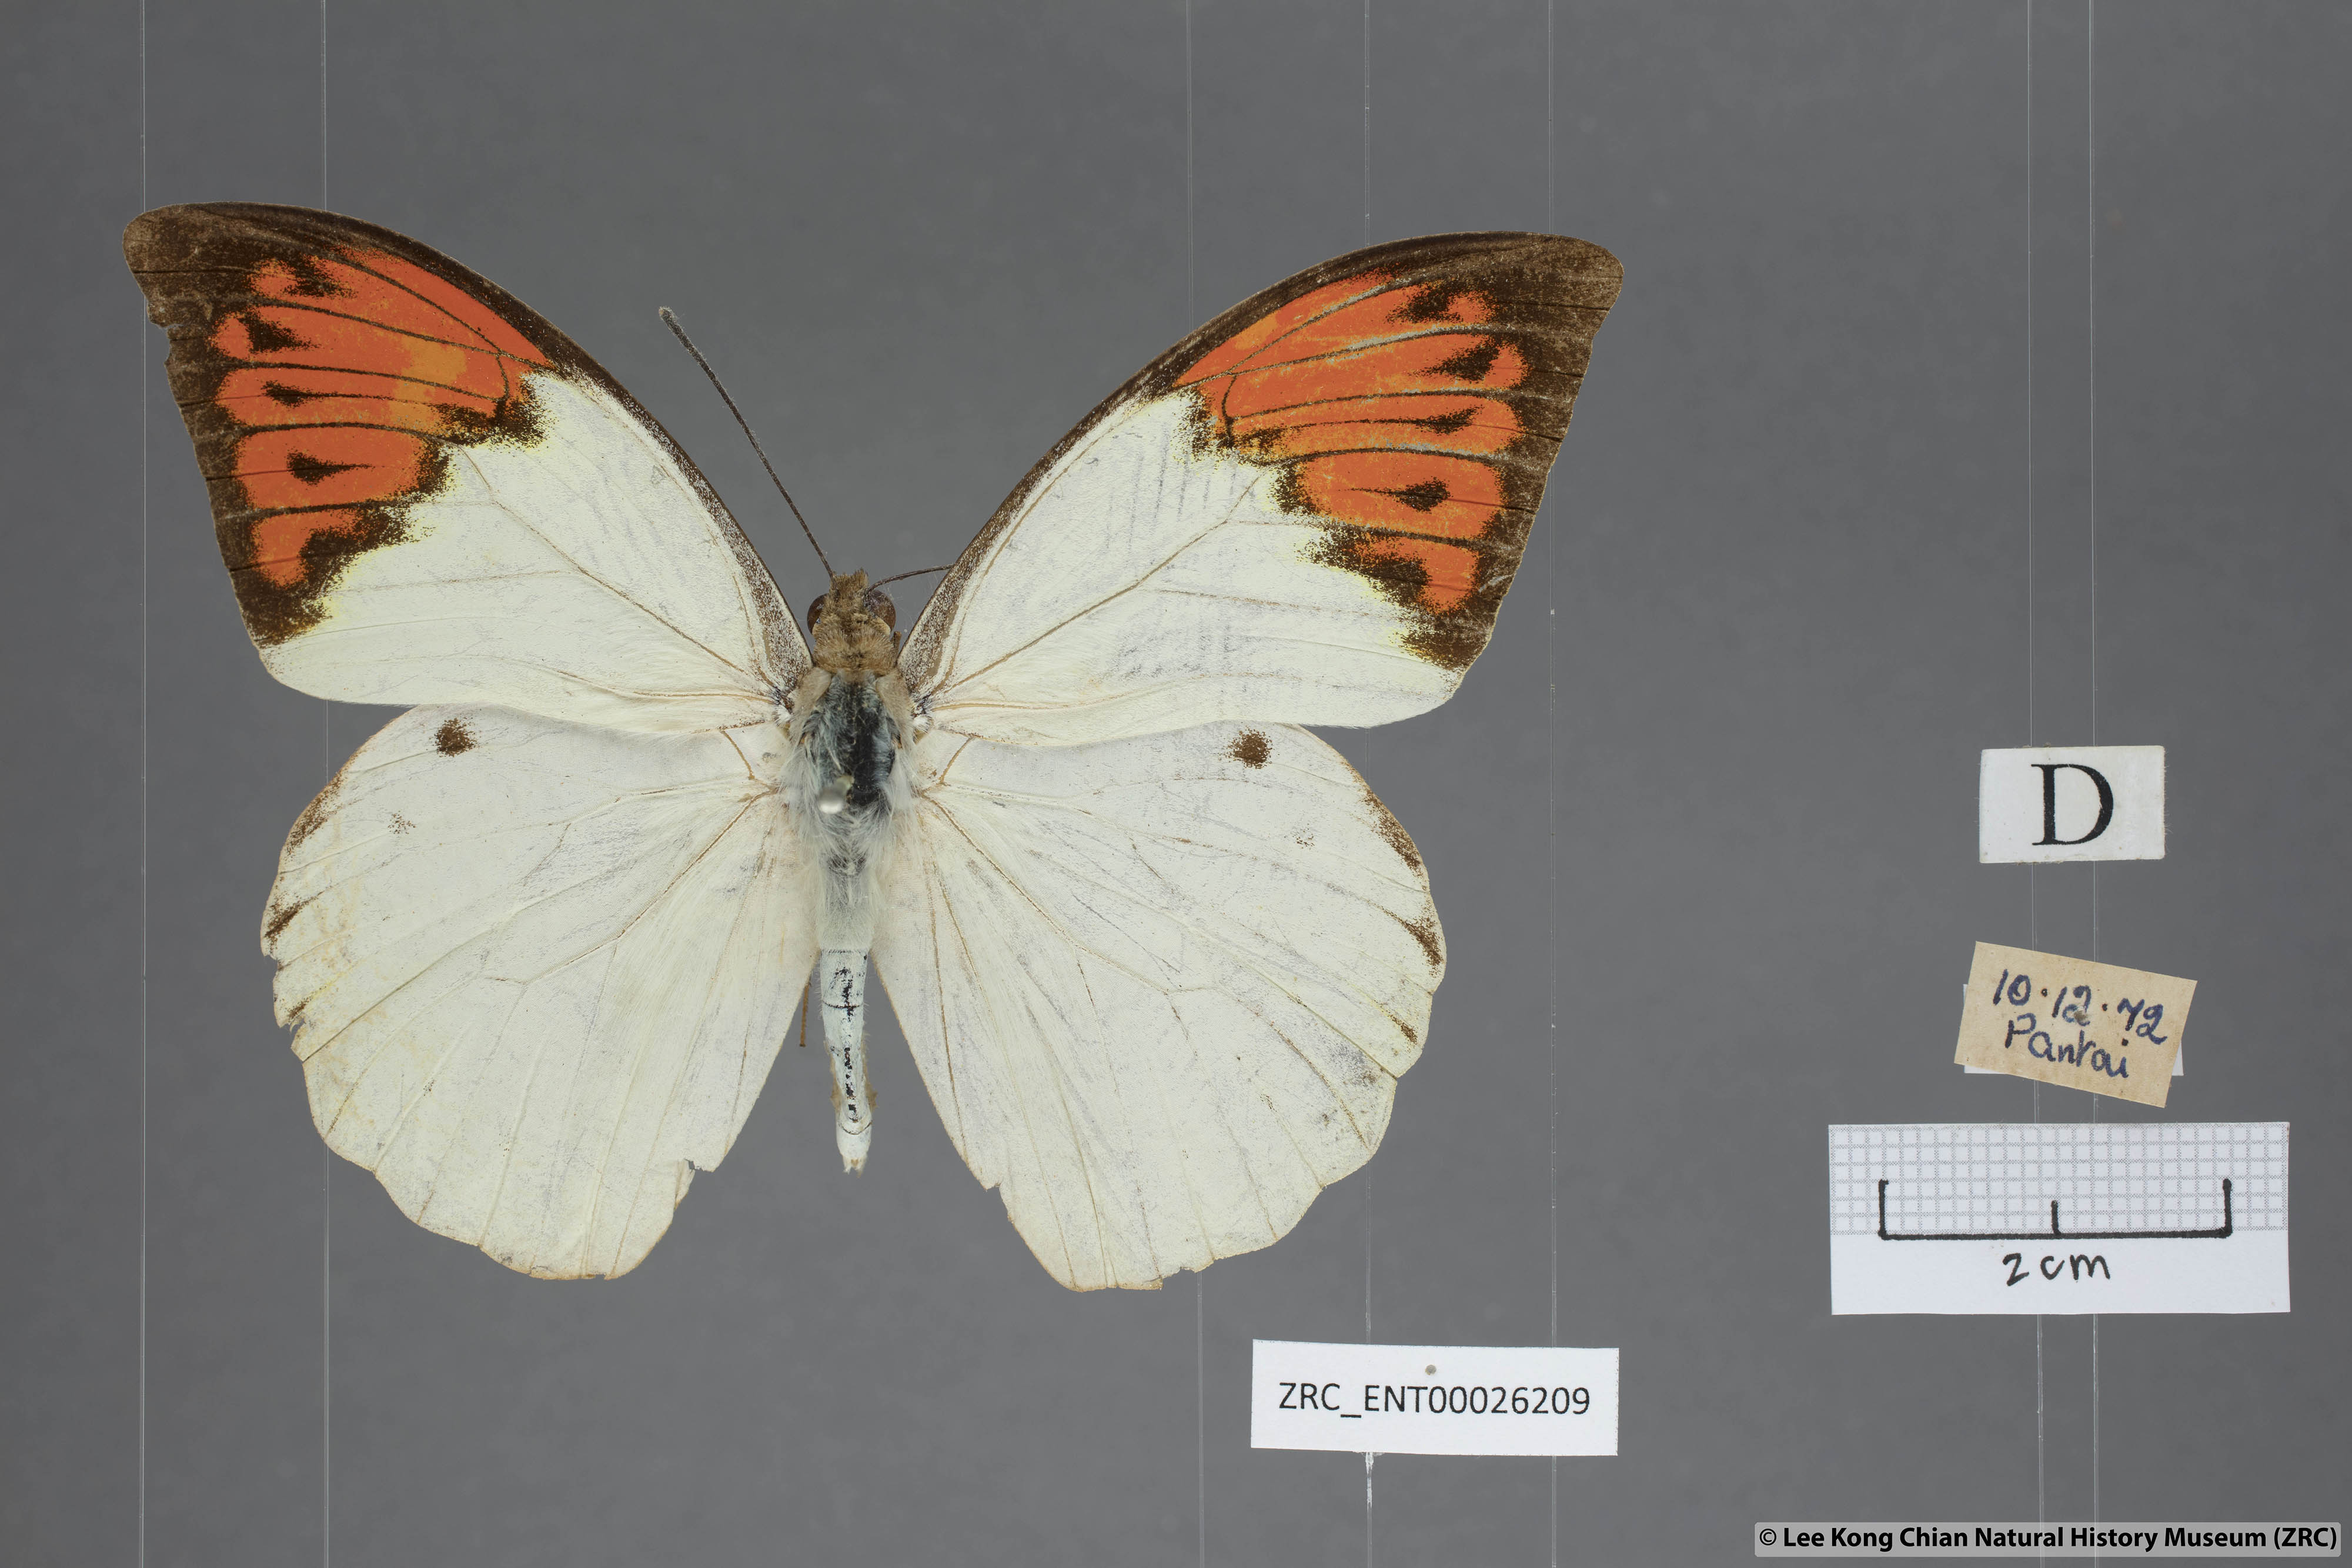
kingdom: Animalia
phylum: Arthropoda
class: Insecta
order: Lepidoptera
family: Pieridae
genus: Hebomoia
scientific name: Hebomoia glaucippe
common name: Great orange tip
